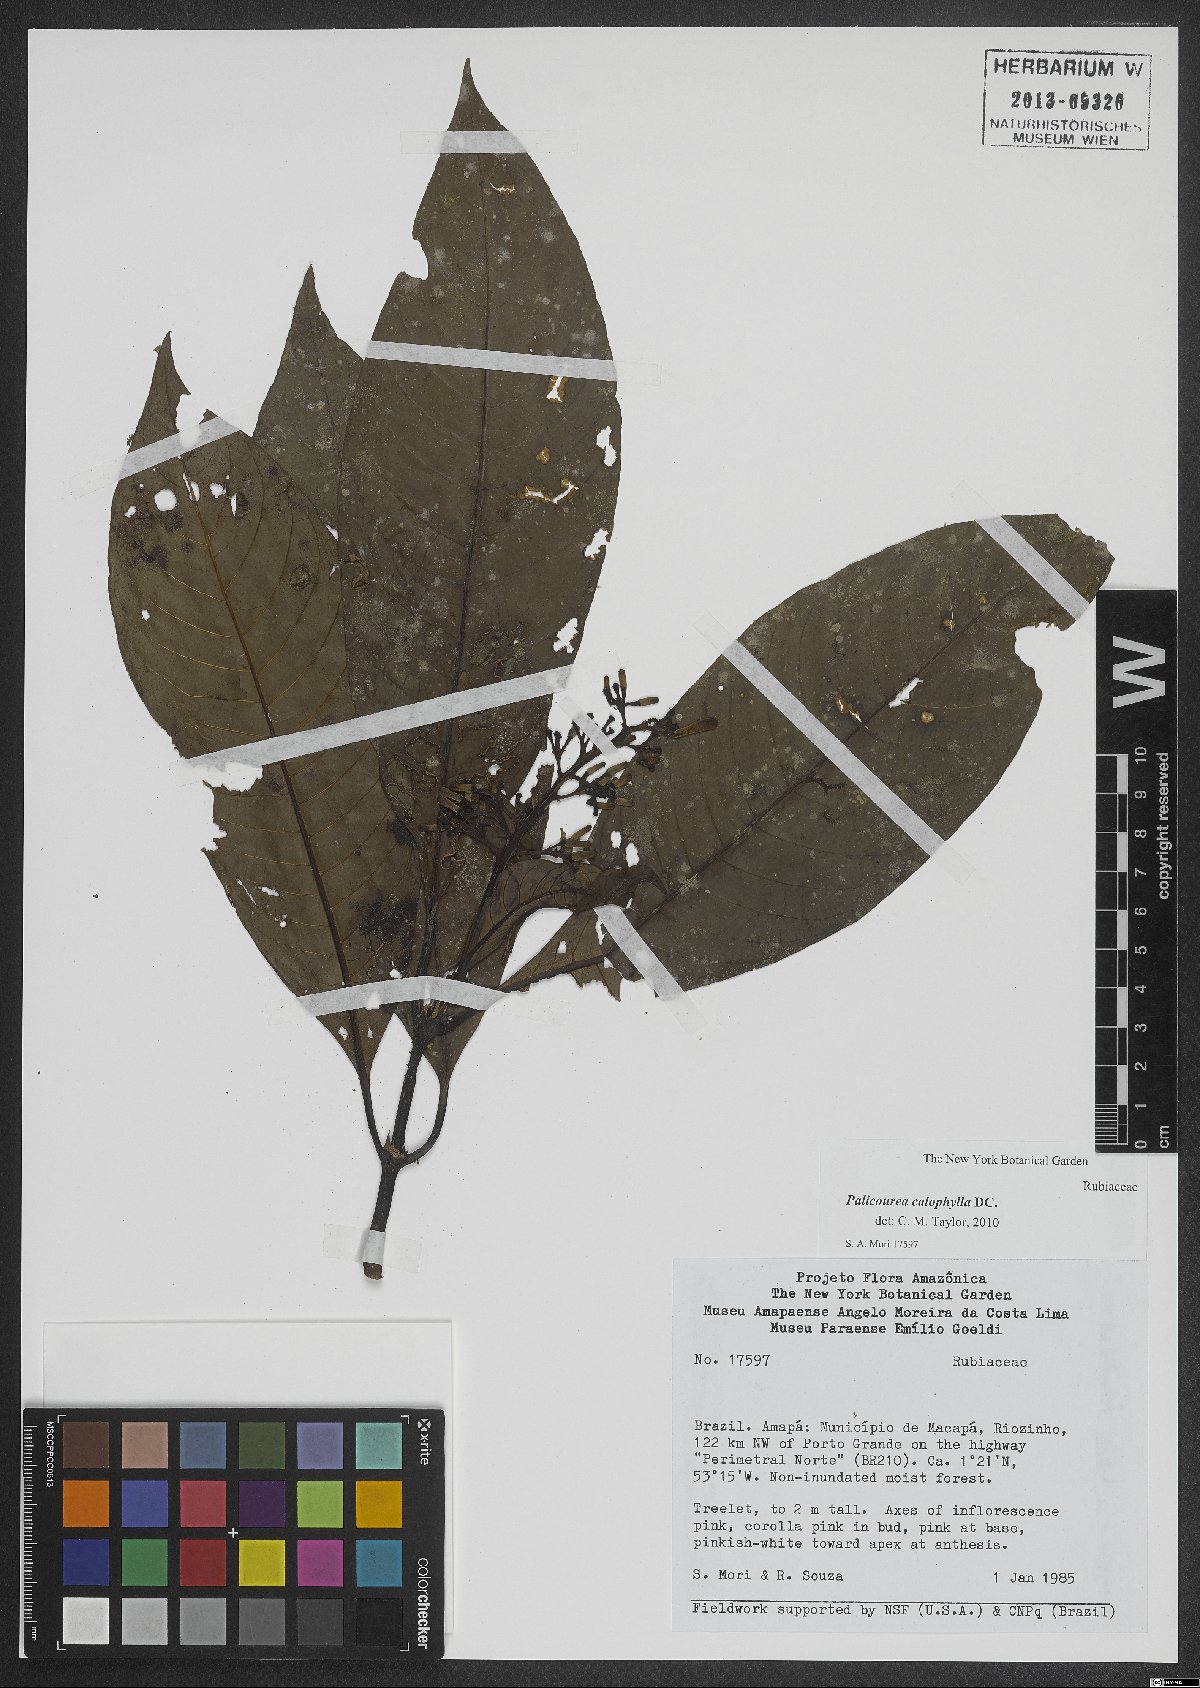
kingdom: Plantae
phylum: Tracheophyta
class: Magnoliopsida
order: Gentianales
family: Rubiaceae
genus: Palicourea
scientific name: Palicourea calophylla
